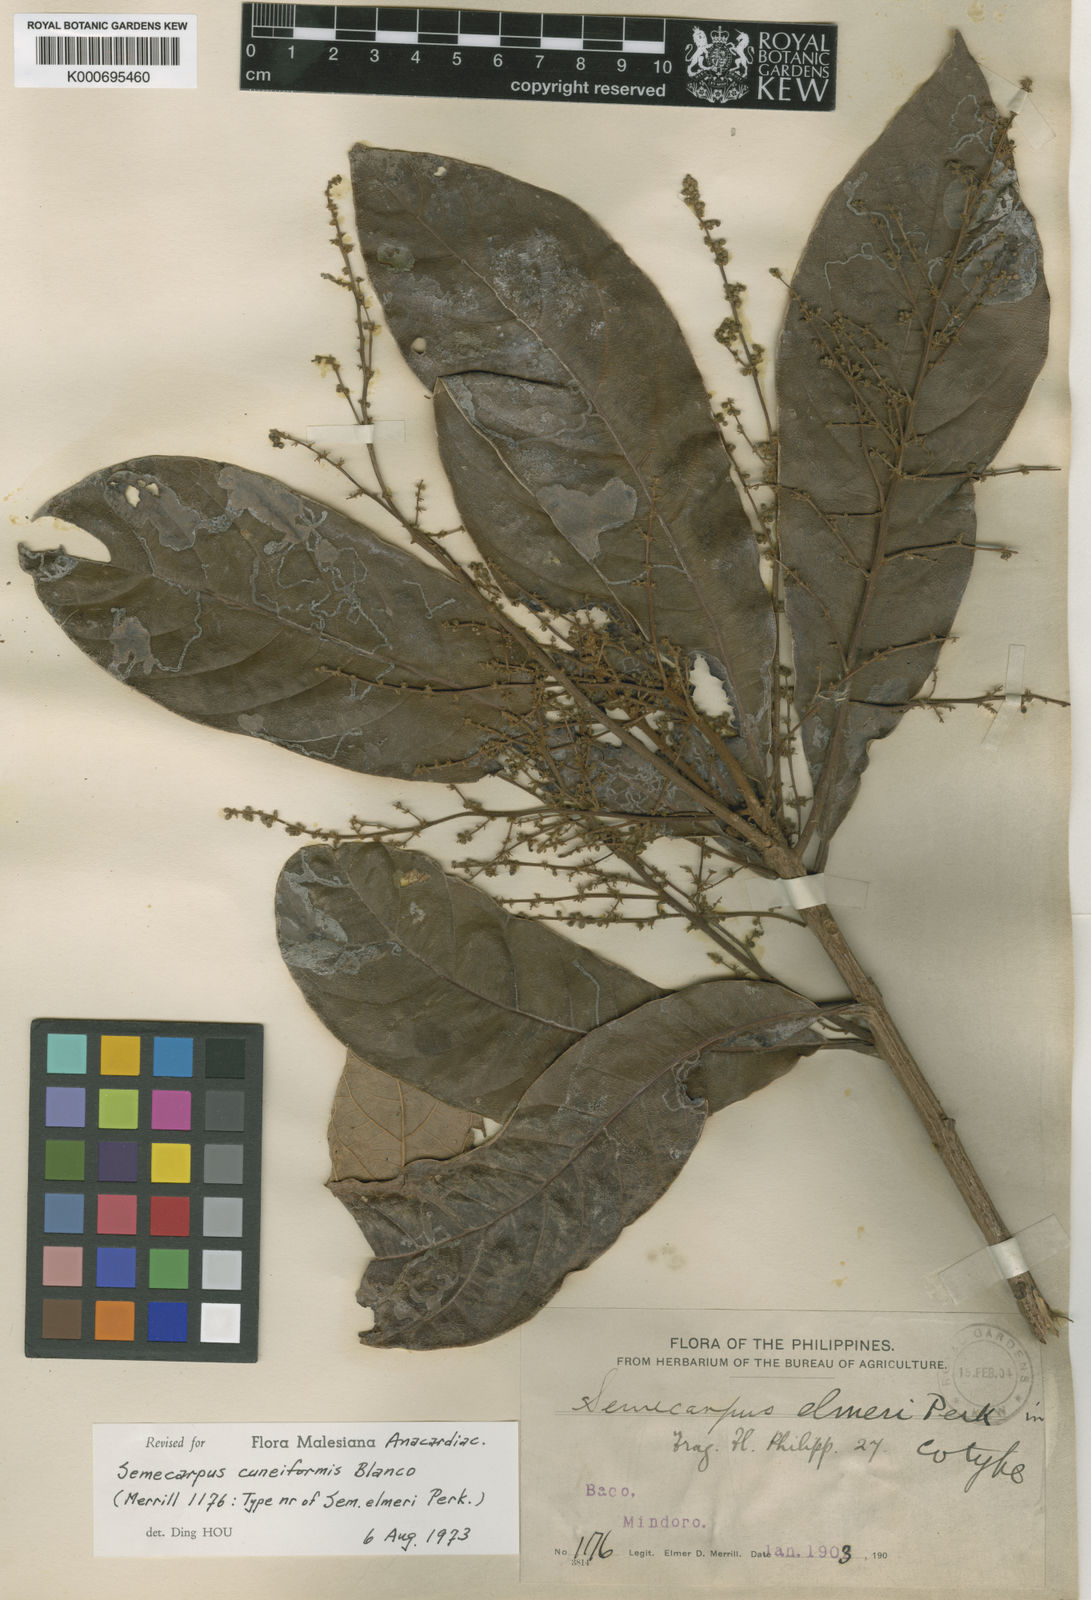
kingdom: Plantae
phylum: Tracheophyta
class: Magnoliopsida
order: Sapindales
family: Anacardiaceae
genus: Semecarpus
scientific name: Semecarpus cuneiformis
